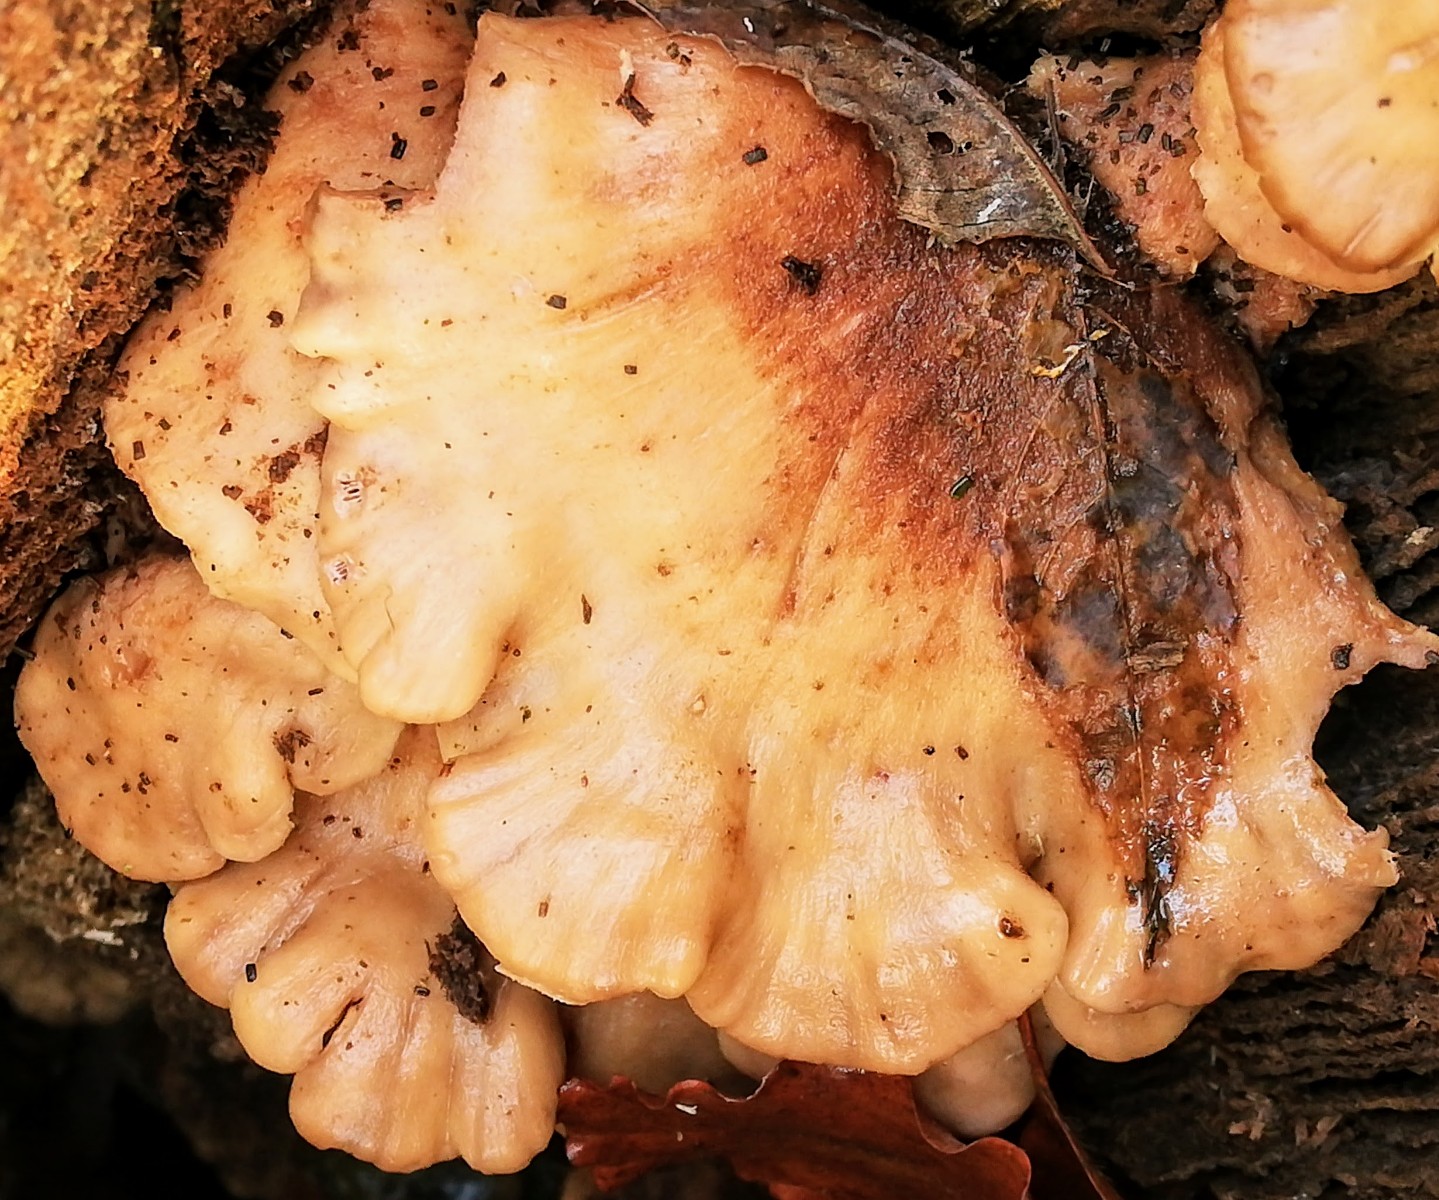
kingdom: Fungi
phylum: Basidiomycota
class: Agaricomycetes
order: Russulales
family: Auriscalpiaceae
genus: Lentinellus
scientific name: Lentinellus ursinus
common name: børstehåret savbladhat
